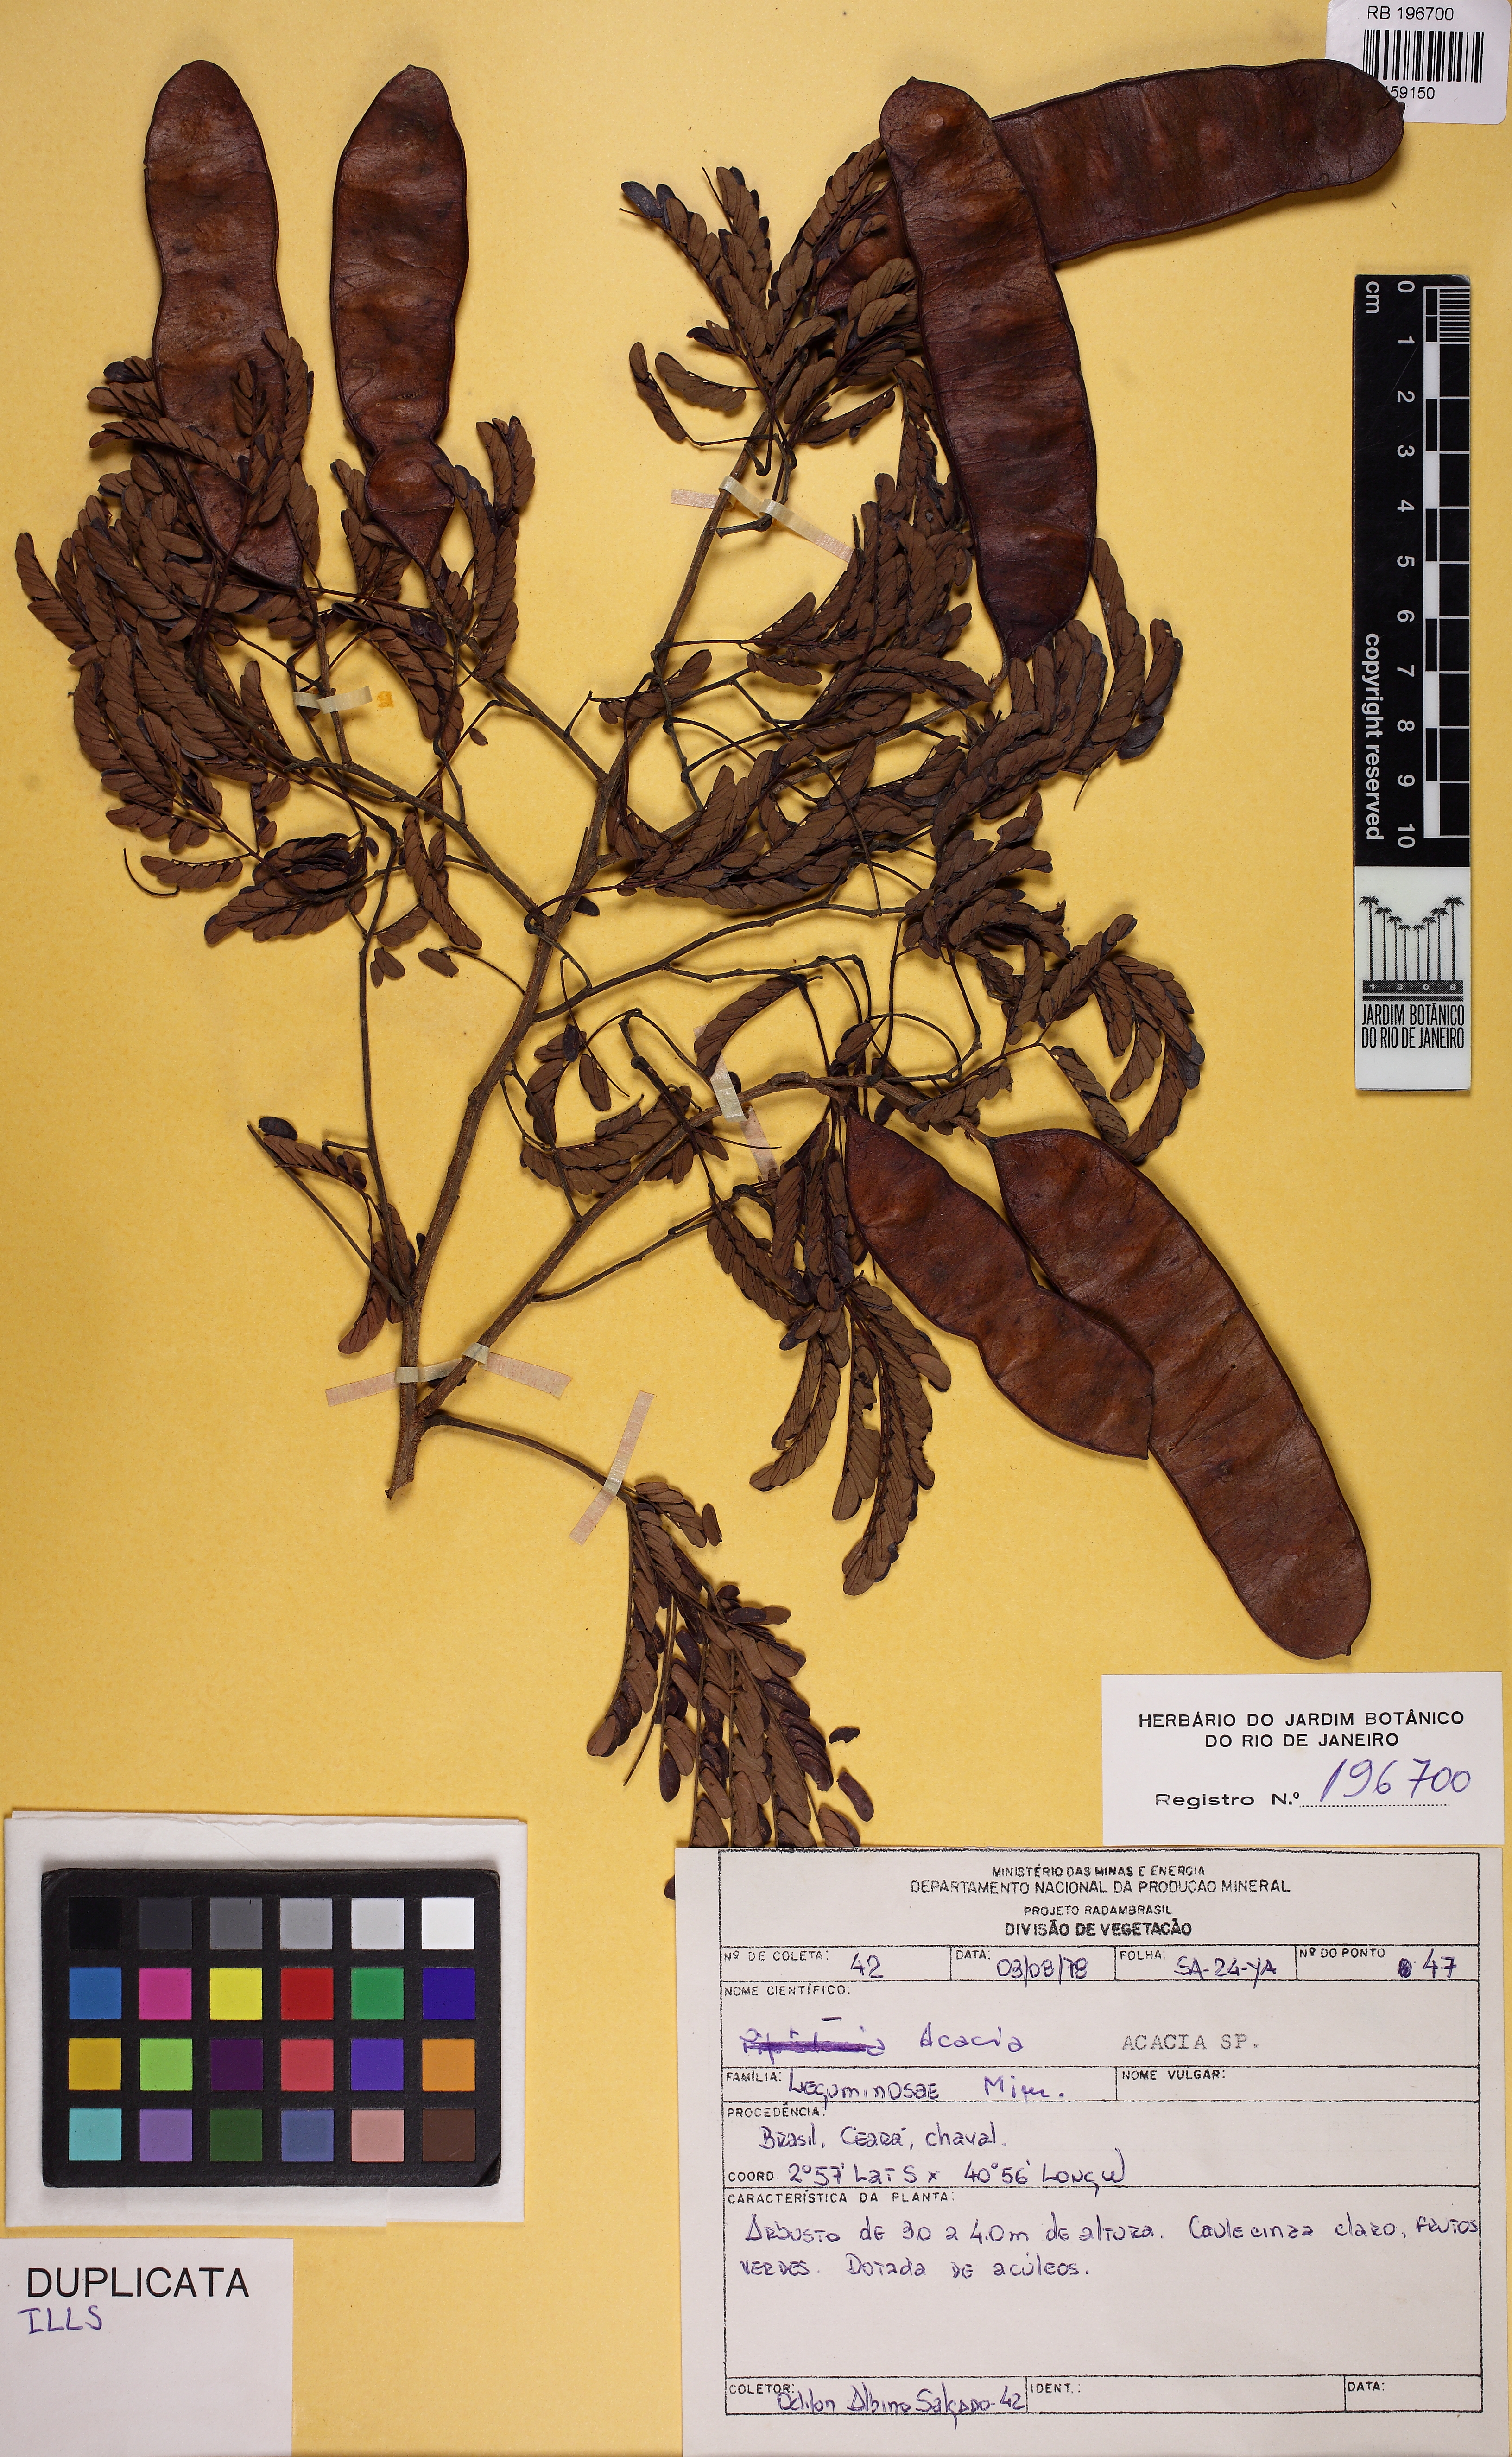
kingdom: Plantae
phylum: Tracheophyta
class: Magnoliopsida
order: Fabales
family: Fabaceae
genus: Acacia
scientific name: Acacia
